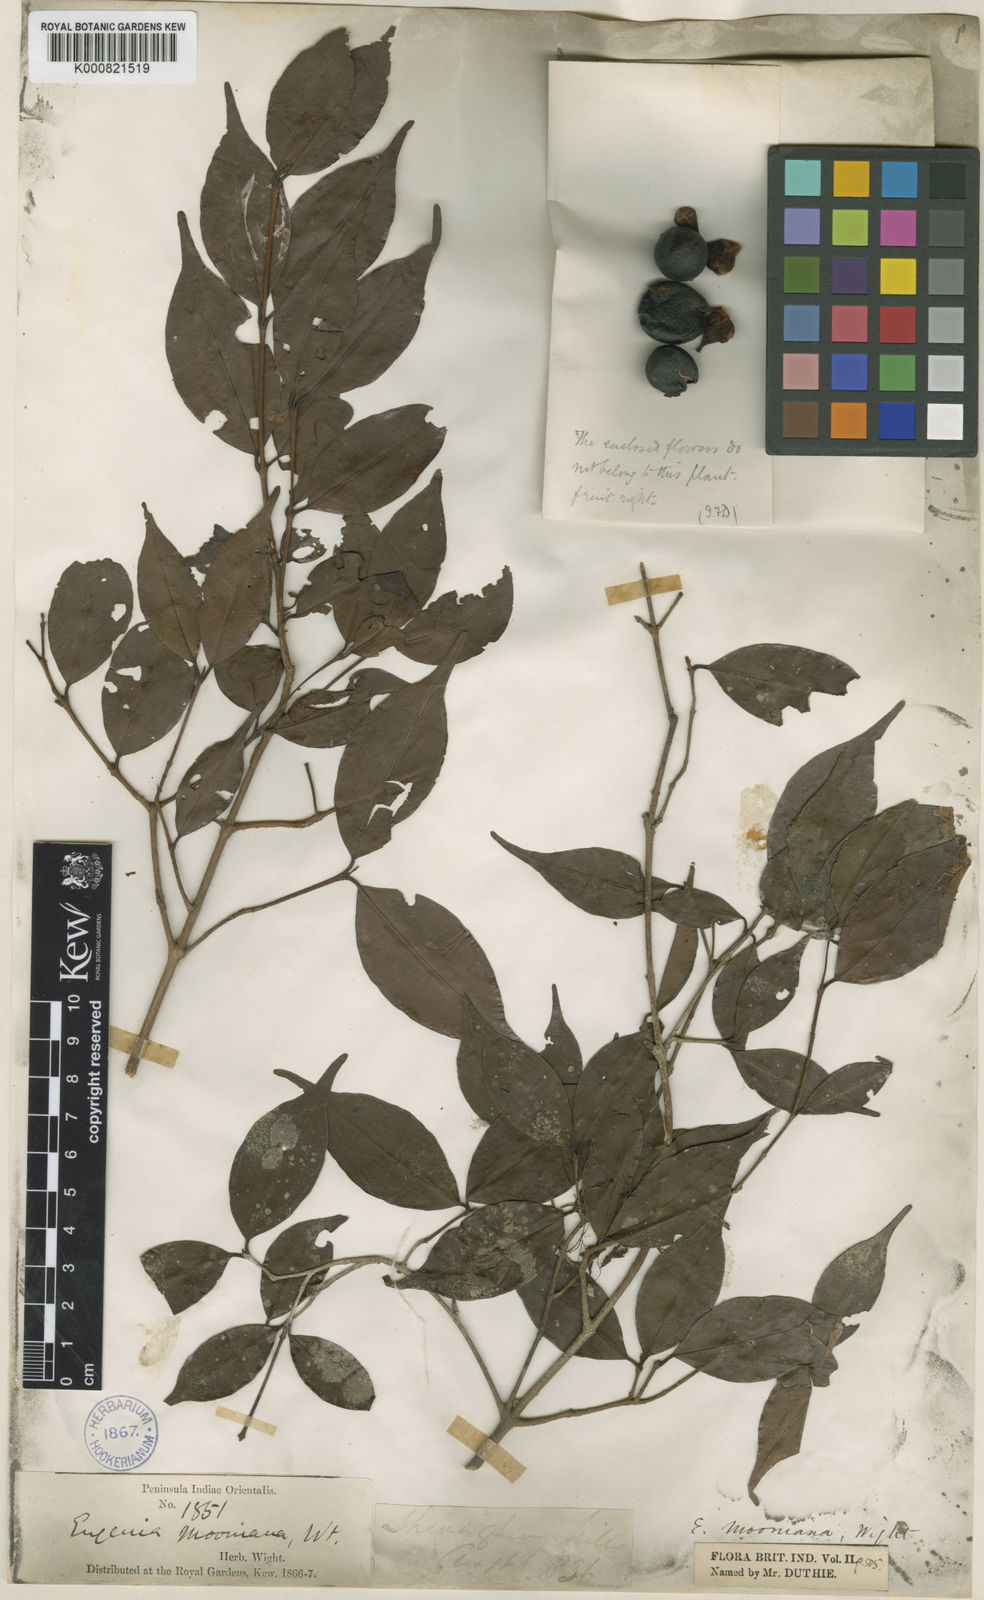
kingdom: Plantae
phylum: Tracheophyta
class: Magnoliopsida
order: Myrtales
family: Myrtaceae
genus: Eugenia
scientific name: Eugenia thwaitesii
